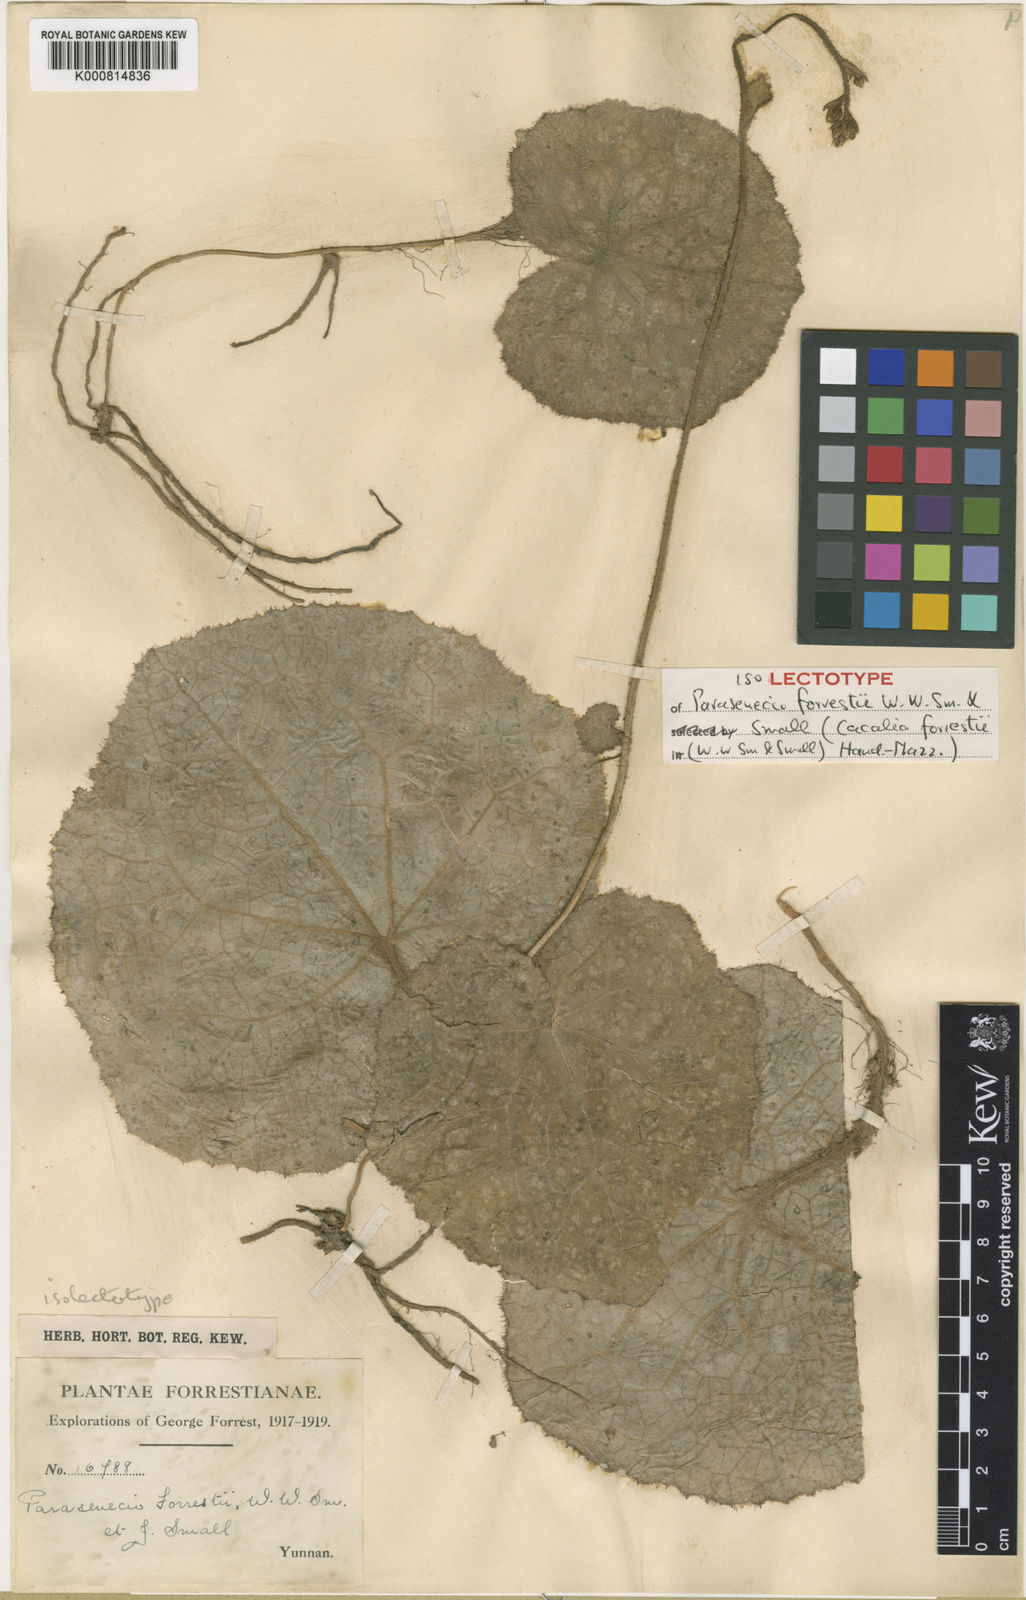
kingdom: Plantae
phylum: Tracheophyta
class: Magnoliopsida
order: Asterales
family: Asteraceae
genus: Parasenecio
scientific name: Parasenecio forrestii
